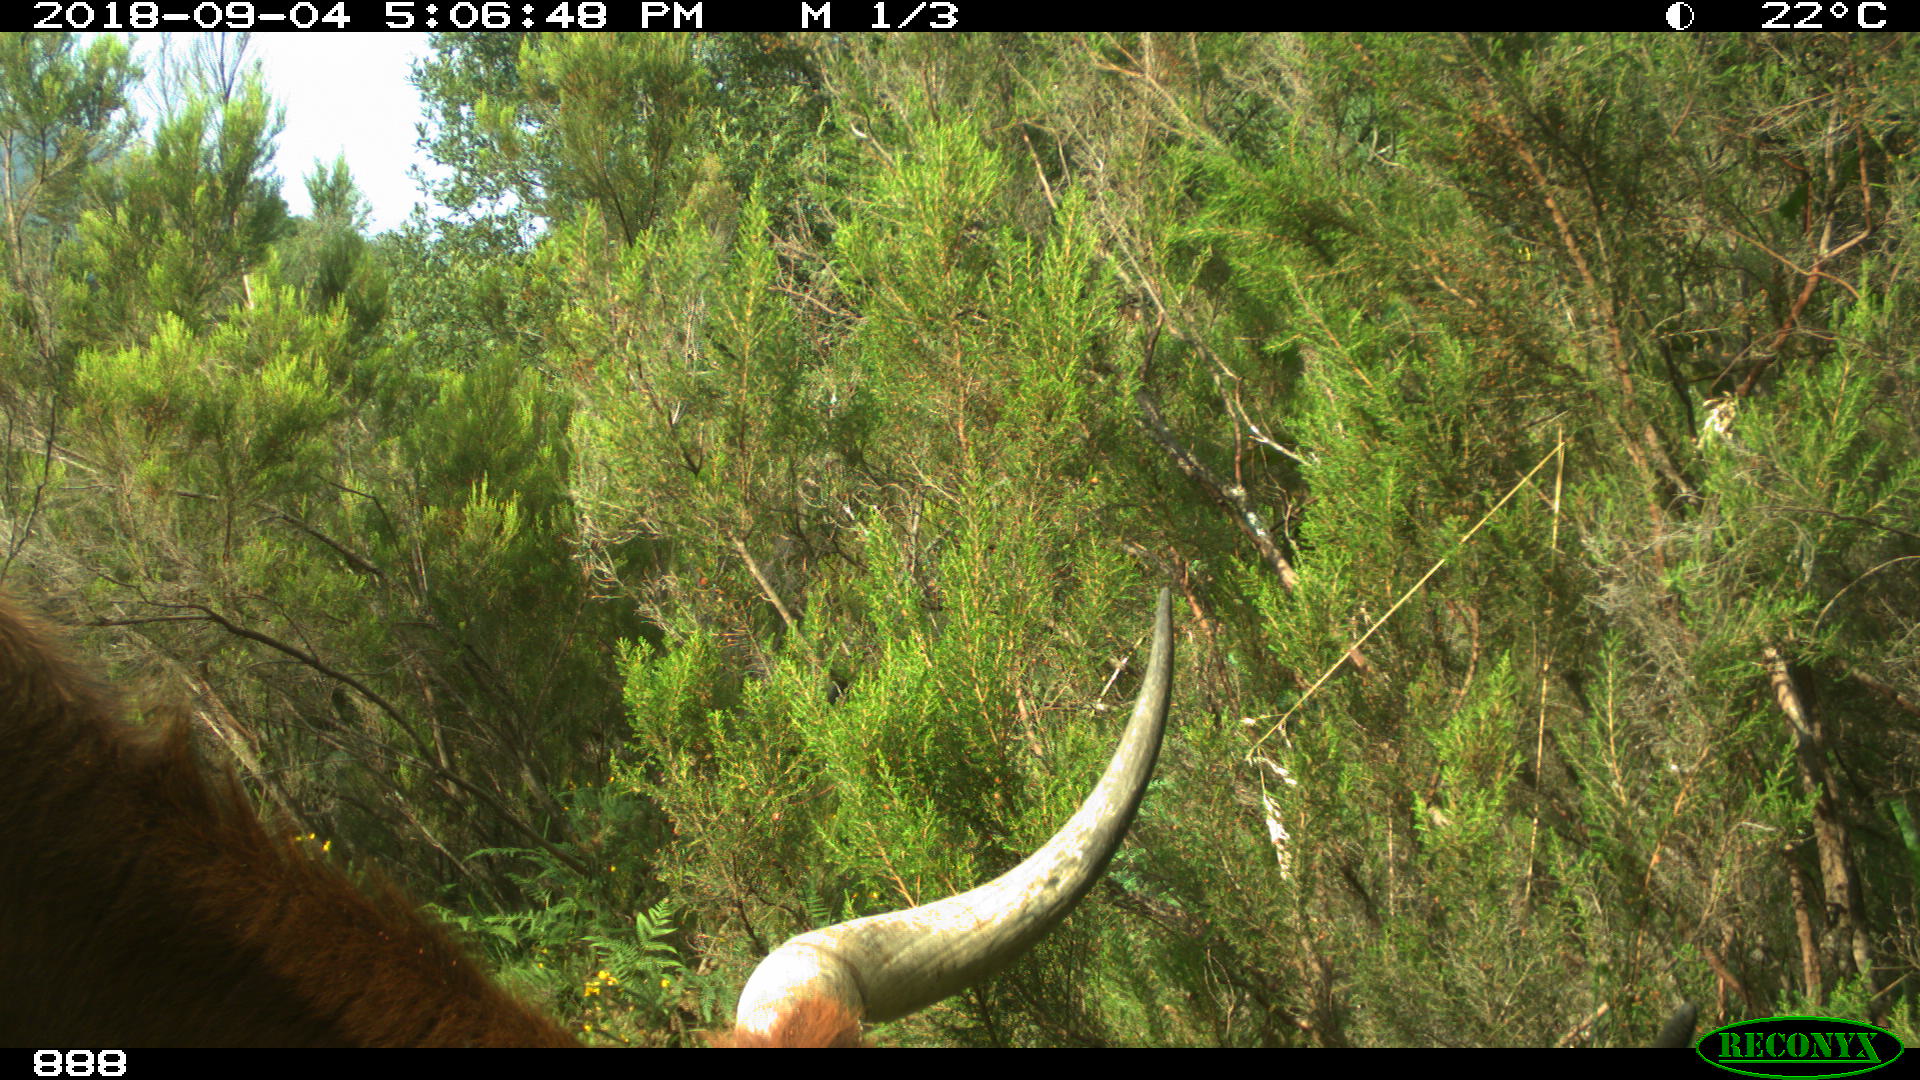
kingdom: Animalia
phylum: Chordata
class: Mammalia
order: Artiodactyla
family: Bovidae
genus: Bos
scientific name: Bos taurus
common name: Domesticated cattle
